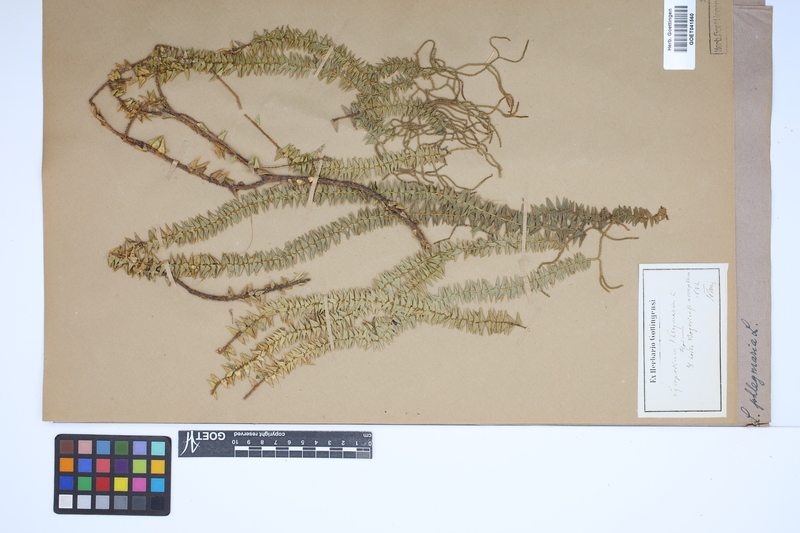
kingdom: Plantae
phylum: Tracheophyta
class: Lycopodiopsida
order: Lycopodiales
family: Lycopodiaceae
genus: Phlegmariurus
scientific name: Phlegmariurus phlegmaria
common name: Coarse tassel-fern
